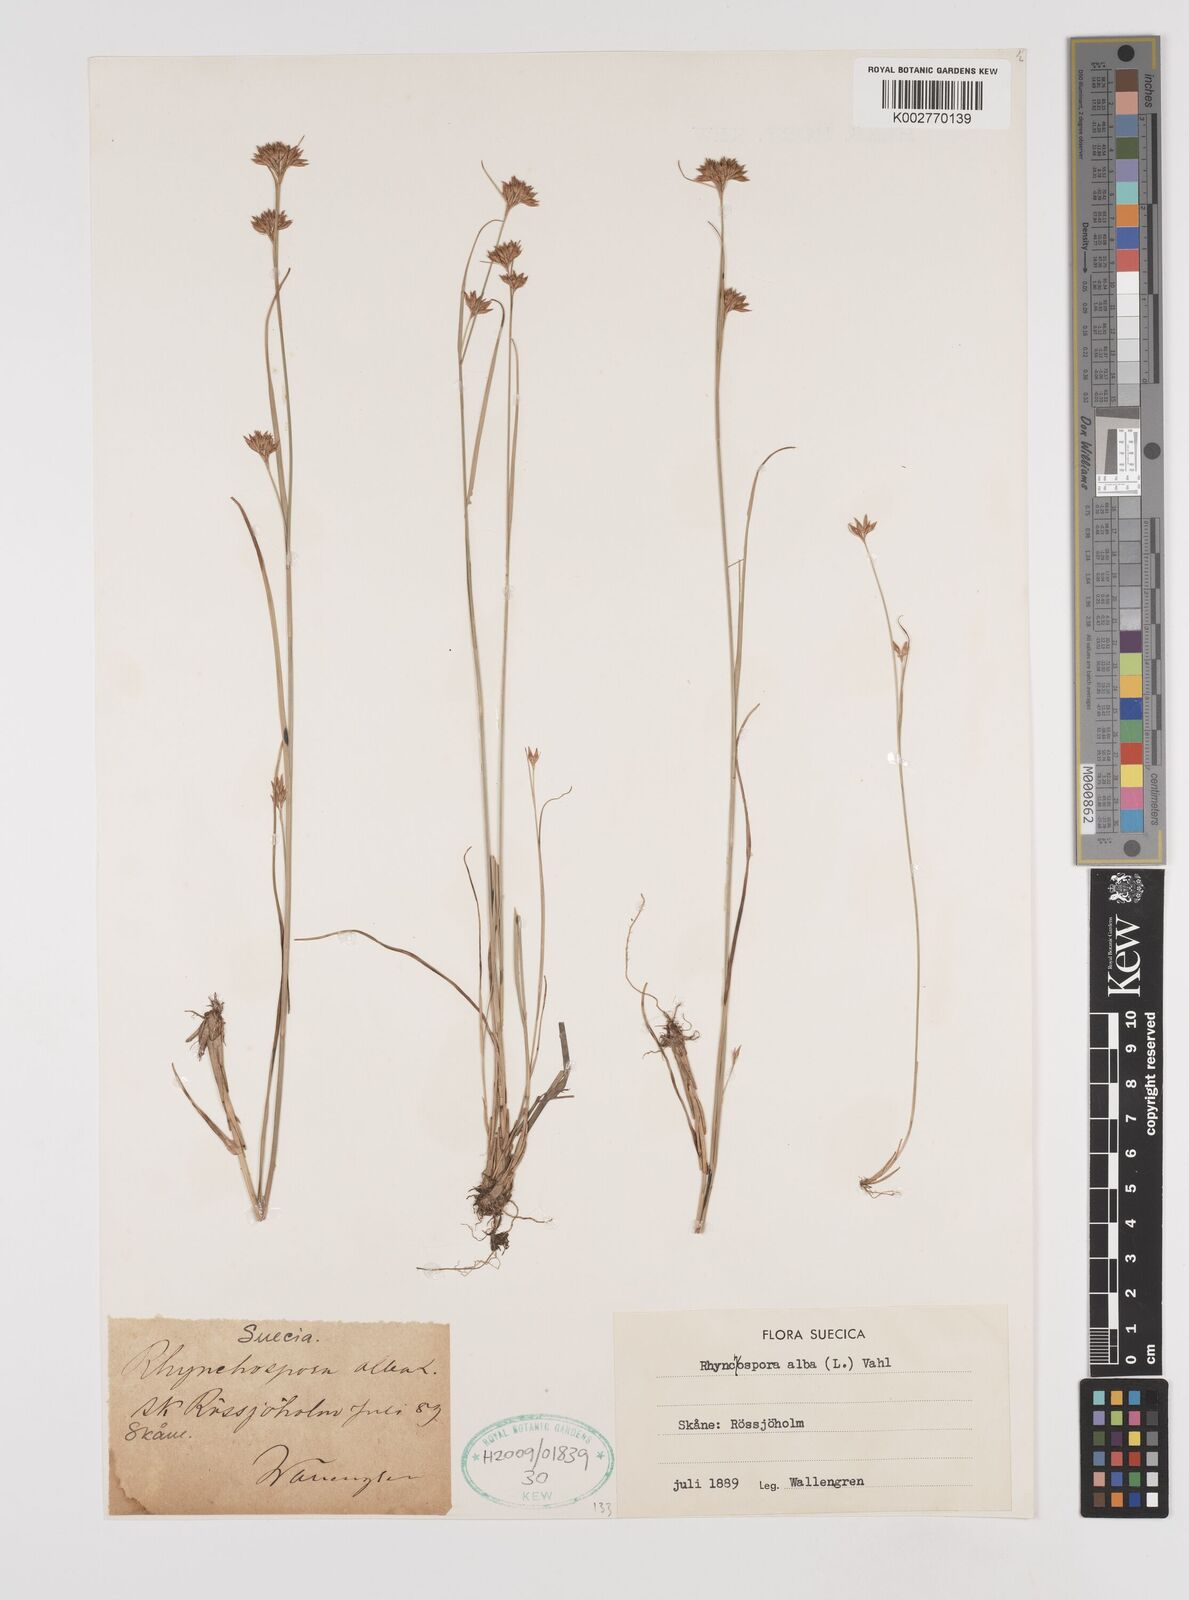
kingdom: Plantae
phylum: Tracheophyta
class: Liliopsida
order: Poales
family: Cyperaceae
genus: Rhynchospora
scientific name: Rhynchospora alba
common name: White beak-sedge
